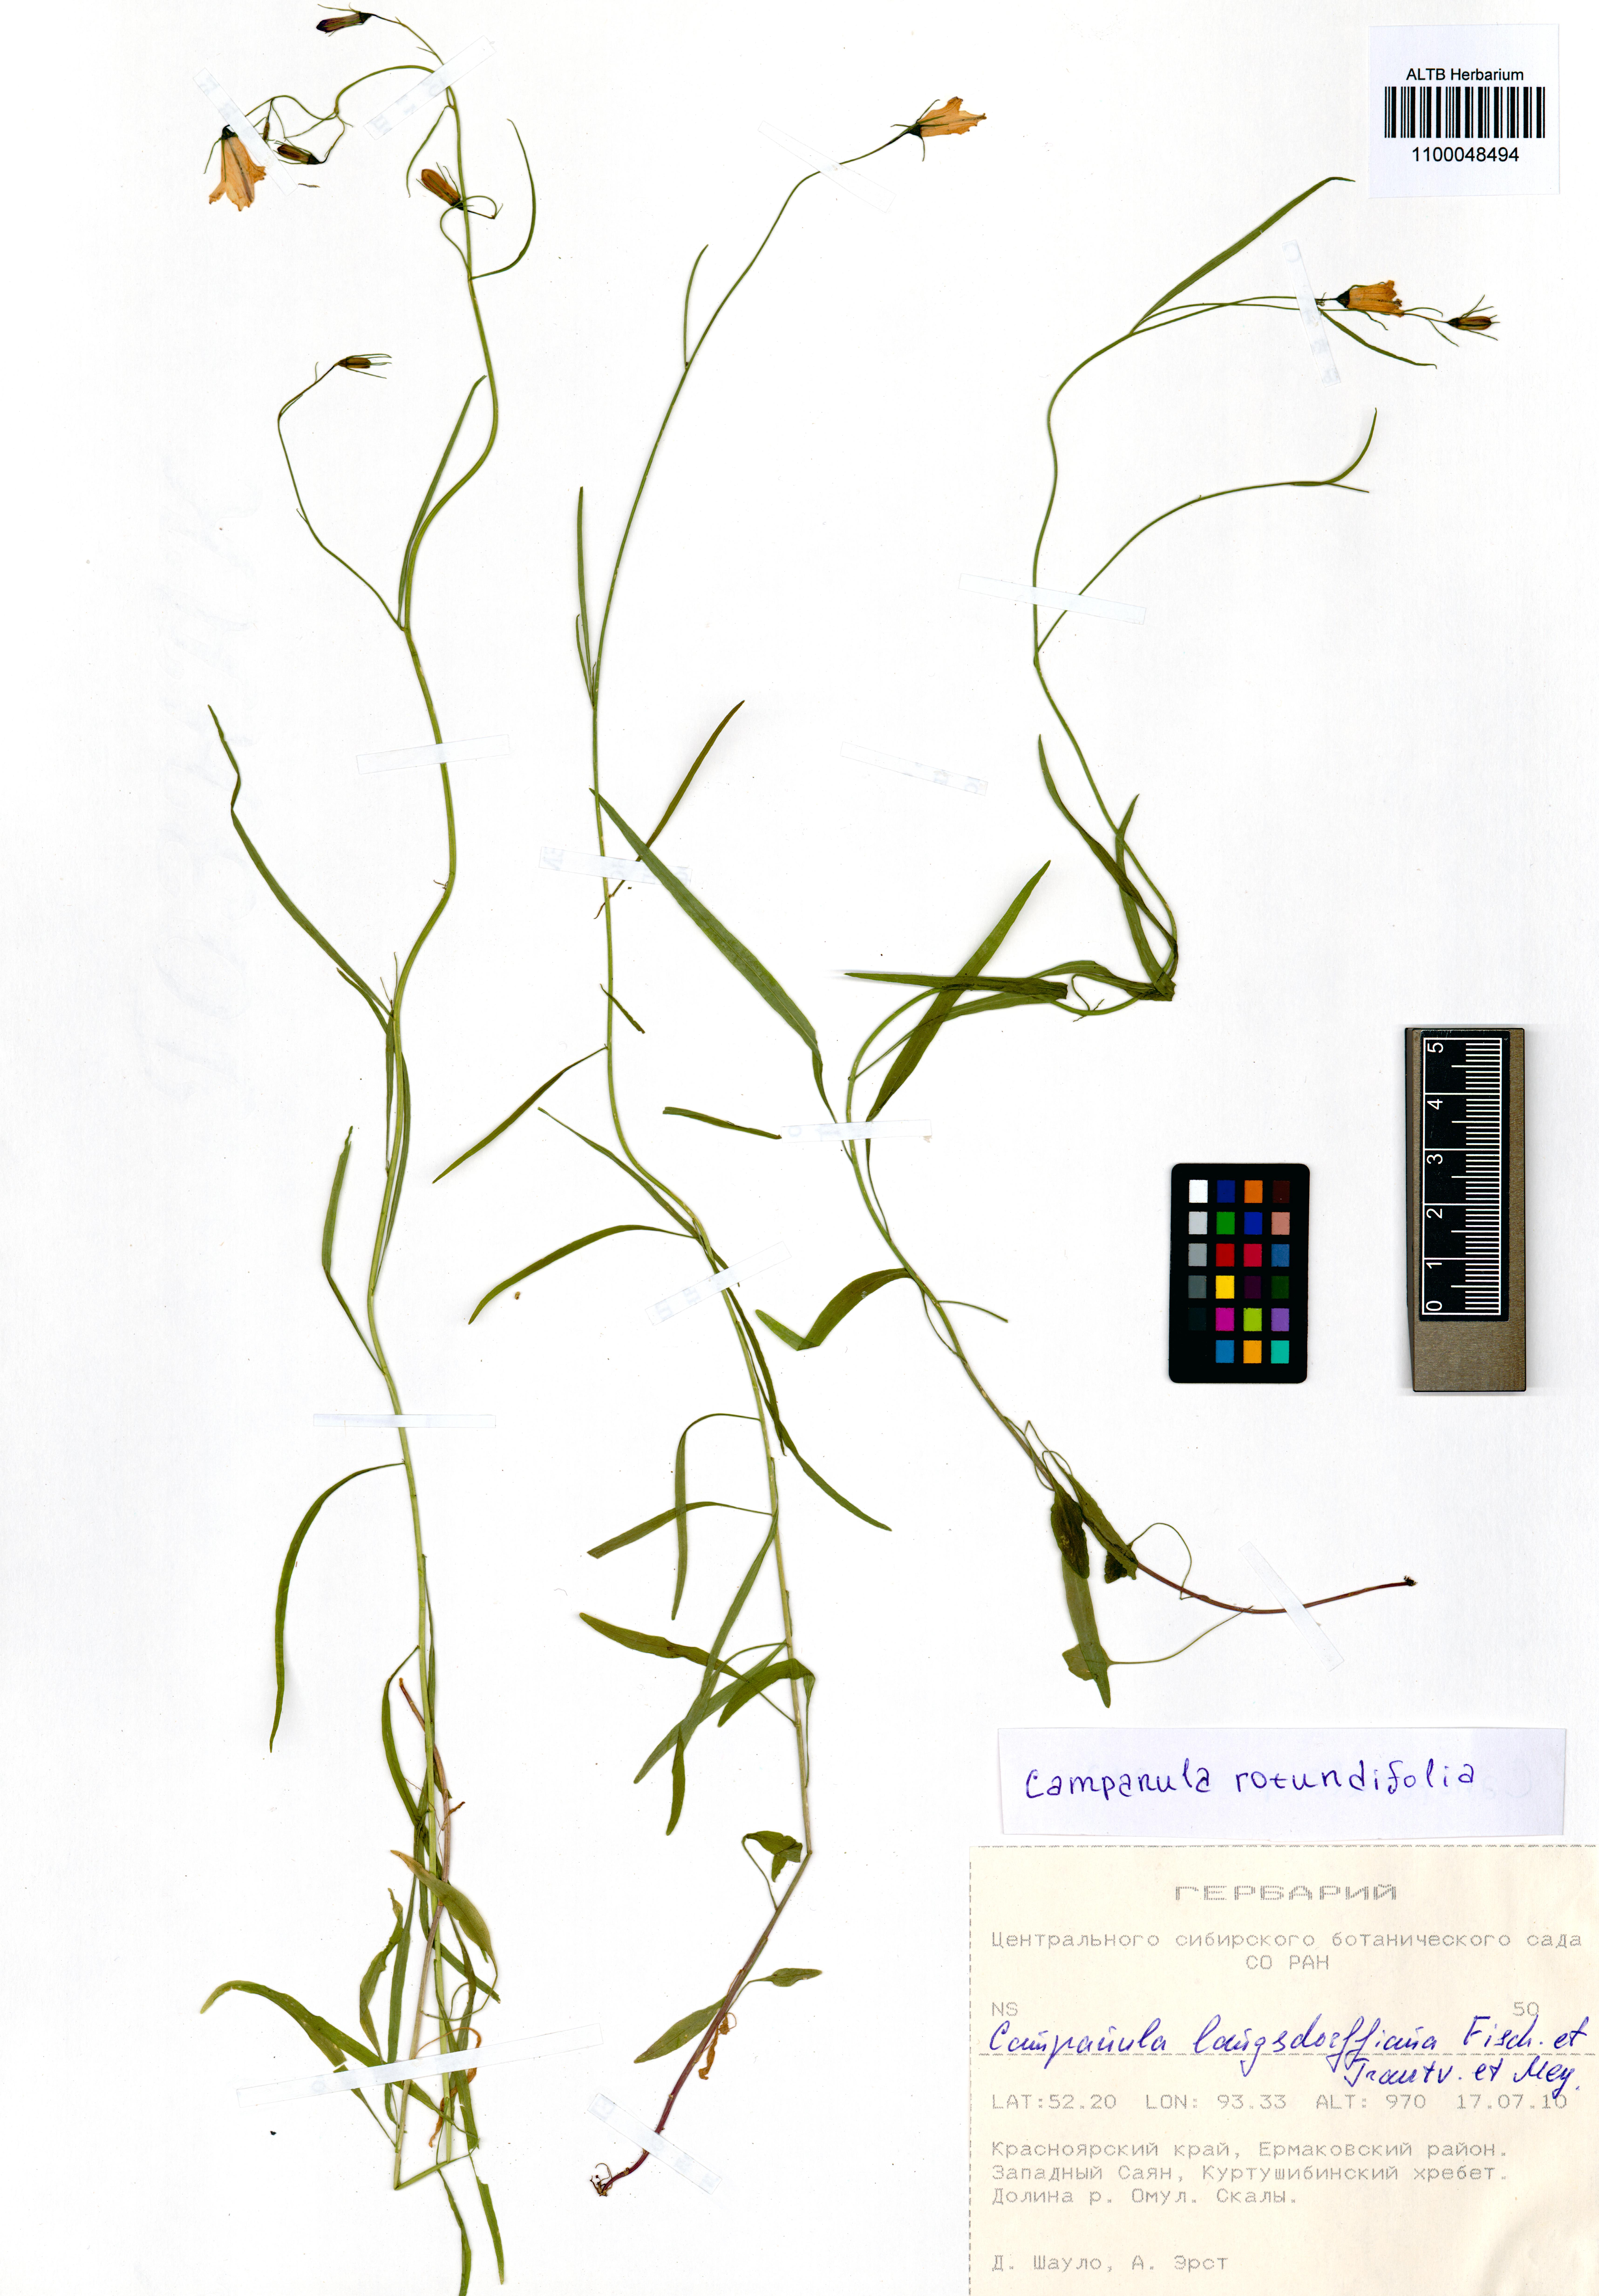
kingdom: Plantae
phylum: Tracheophyta
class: Magnoliopsida
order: Asterales
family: Campanulaceae
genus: Campanula
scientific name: Campanula rotundifolia
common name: Harebell
